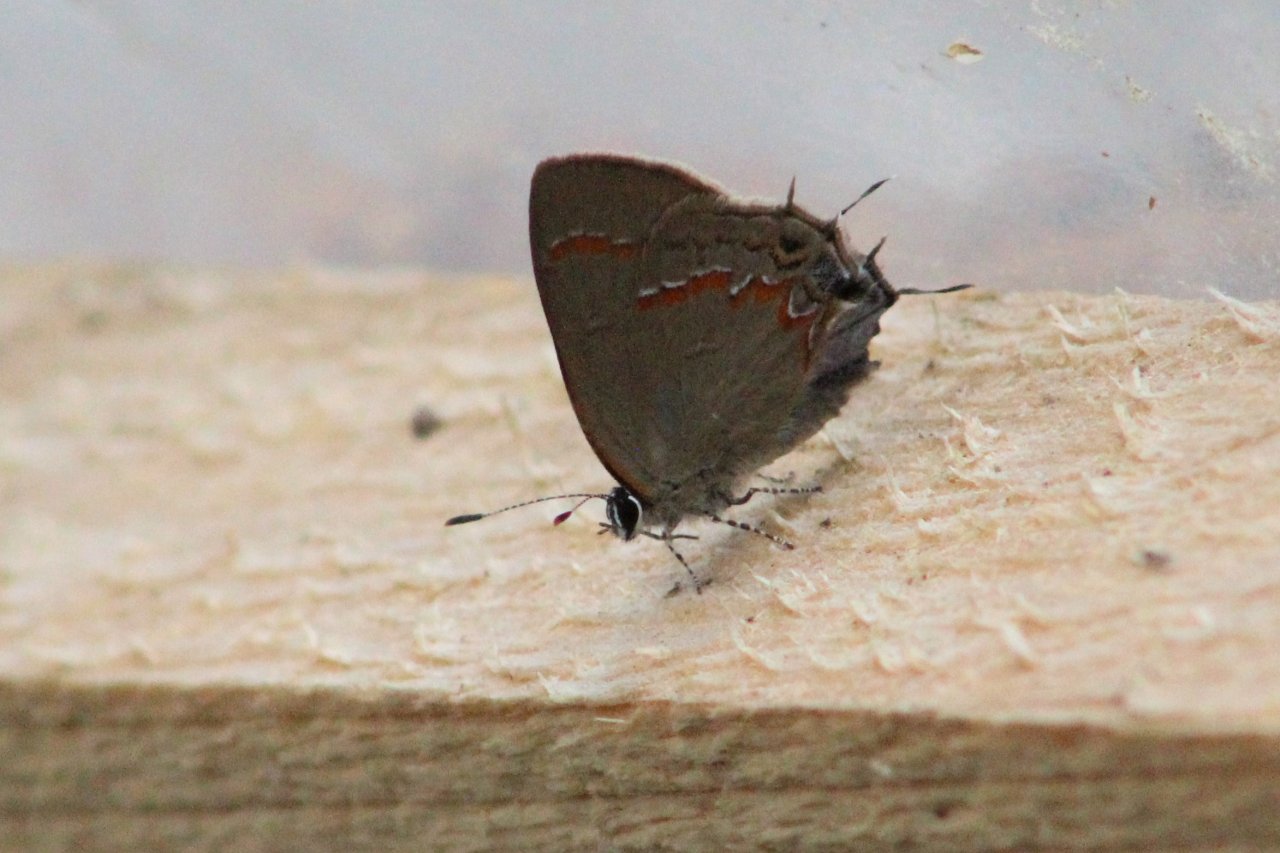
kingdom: Animalia
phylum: Arthropoda
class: Insecta
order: Lepidoptera
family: Lycaenidae
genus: Calycopis
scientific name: Calycopis cecrops
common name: Red-banded Hairstreak
